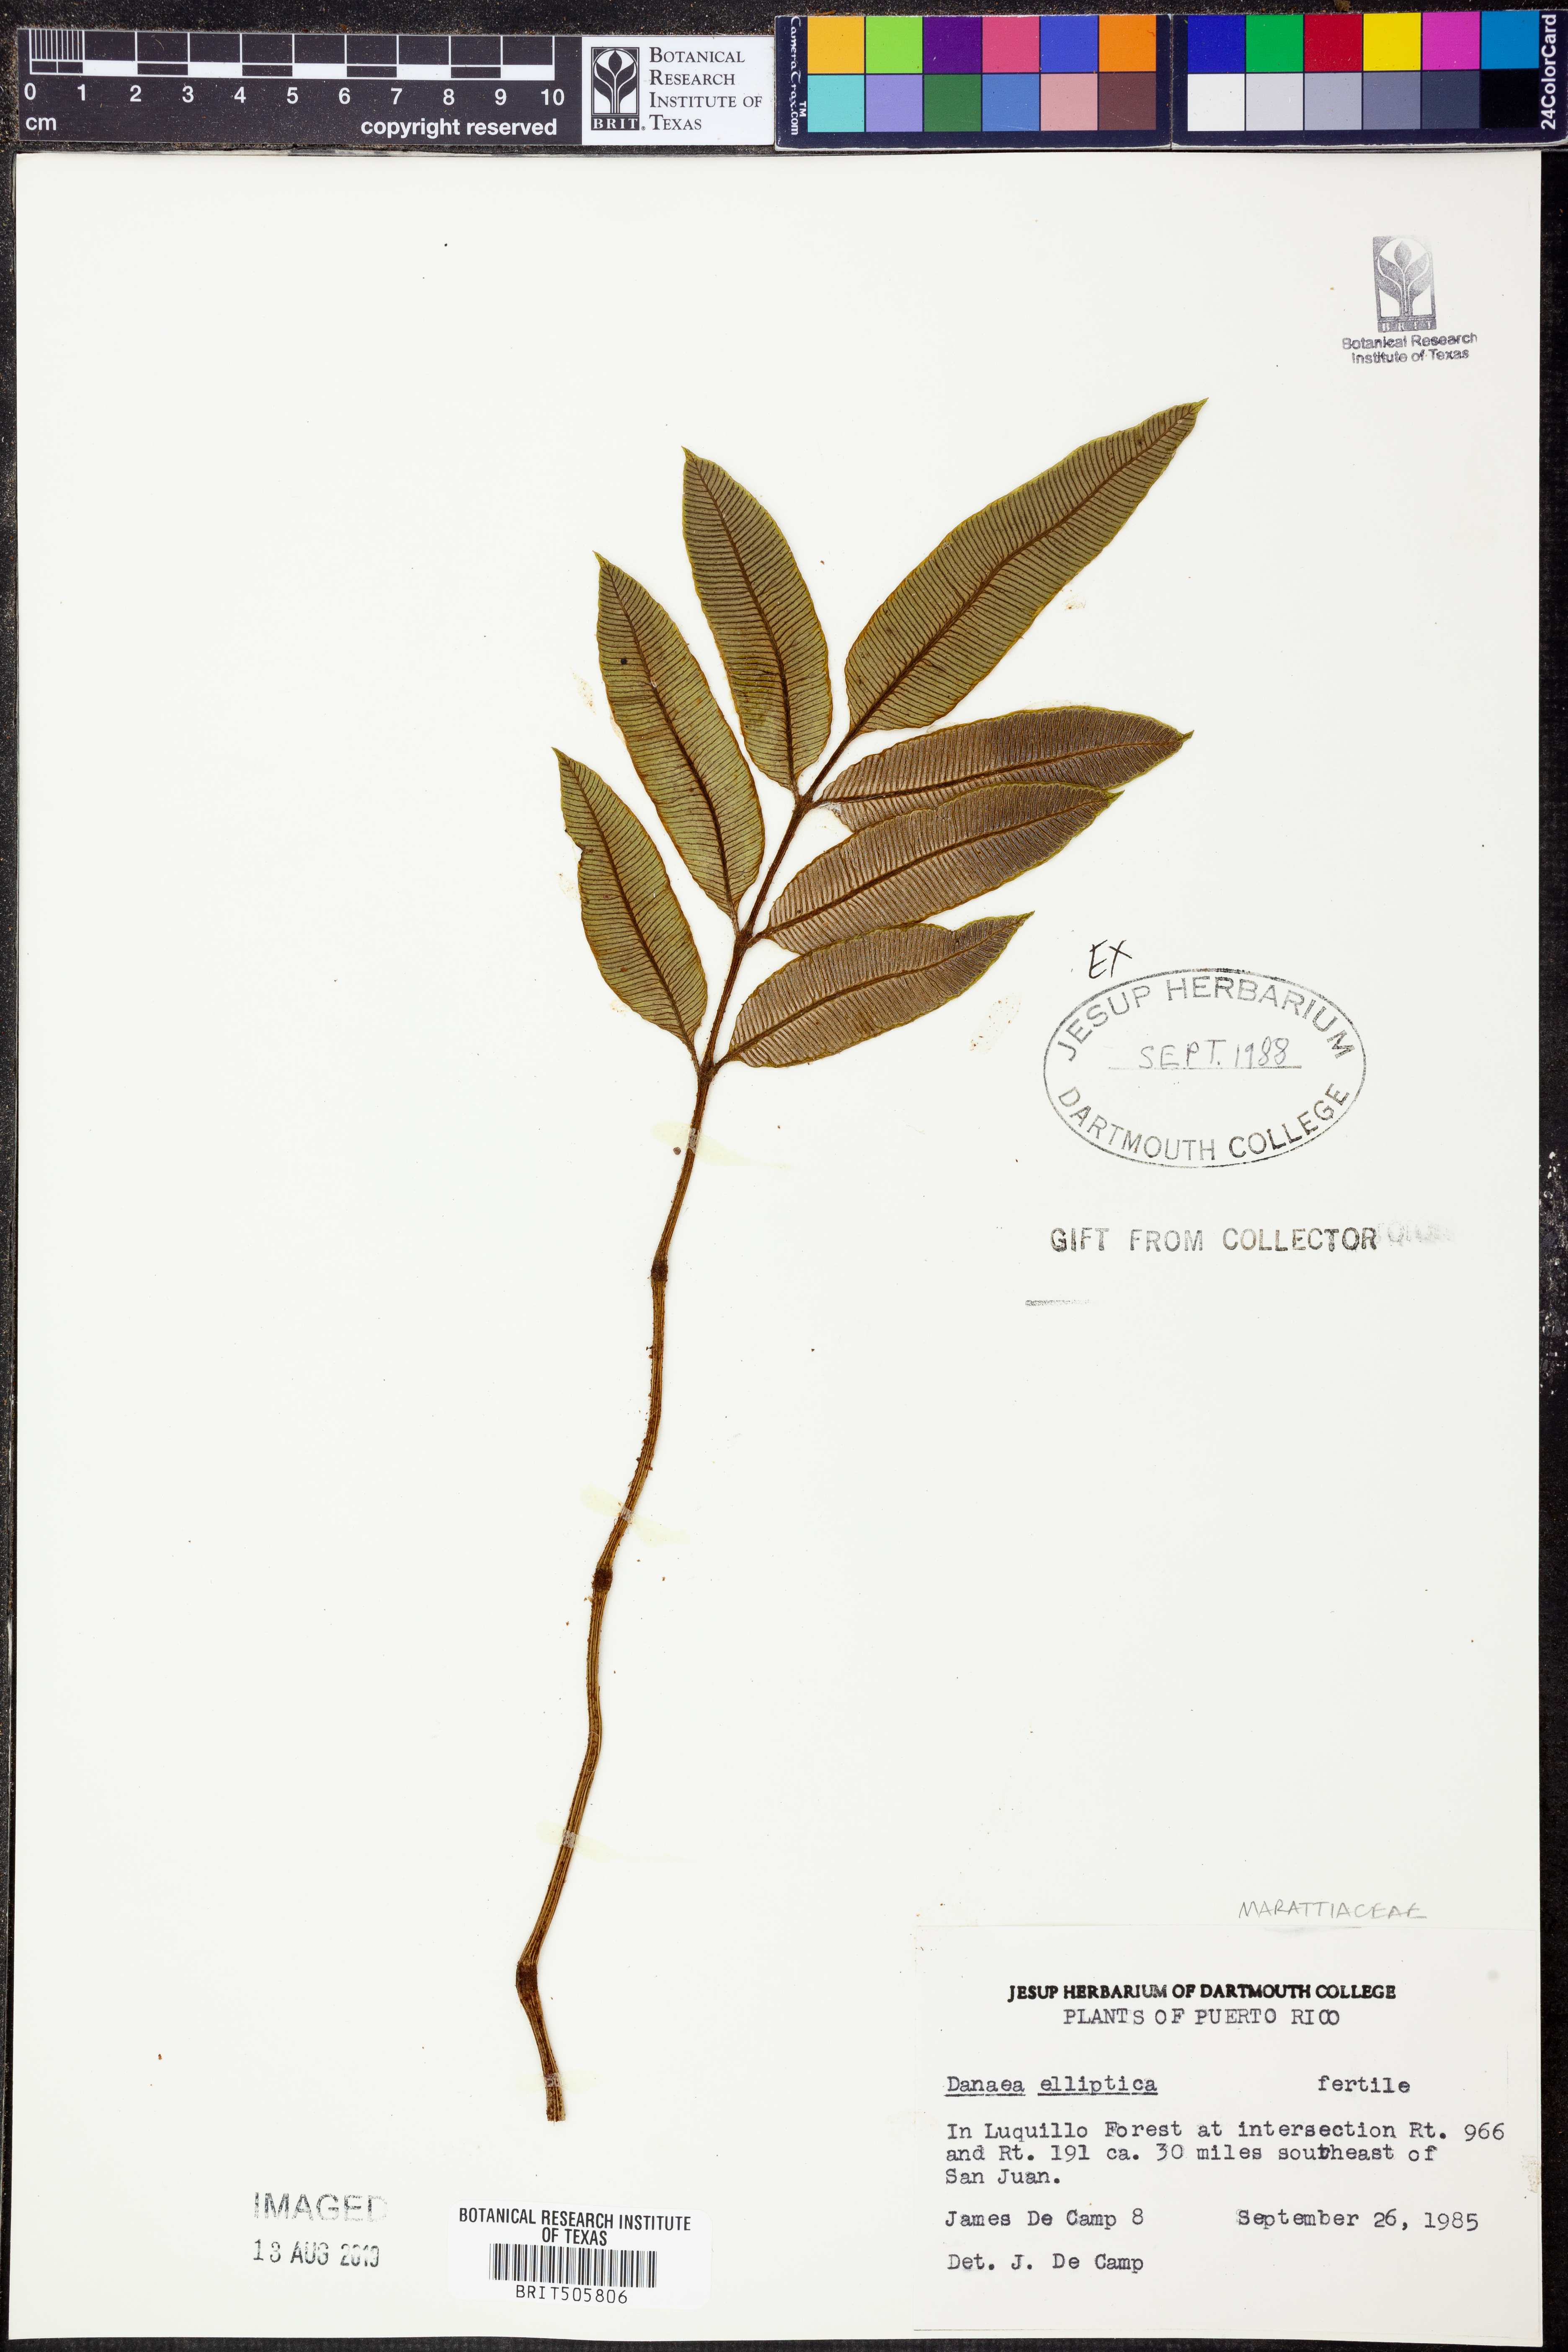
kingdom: Plantae
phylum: Tracheophyta
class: Polypodiopsida
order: Marattiales
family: Marattiaceae
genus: Danaea
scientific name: Danaea nodosa
